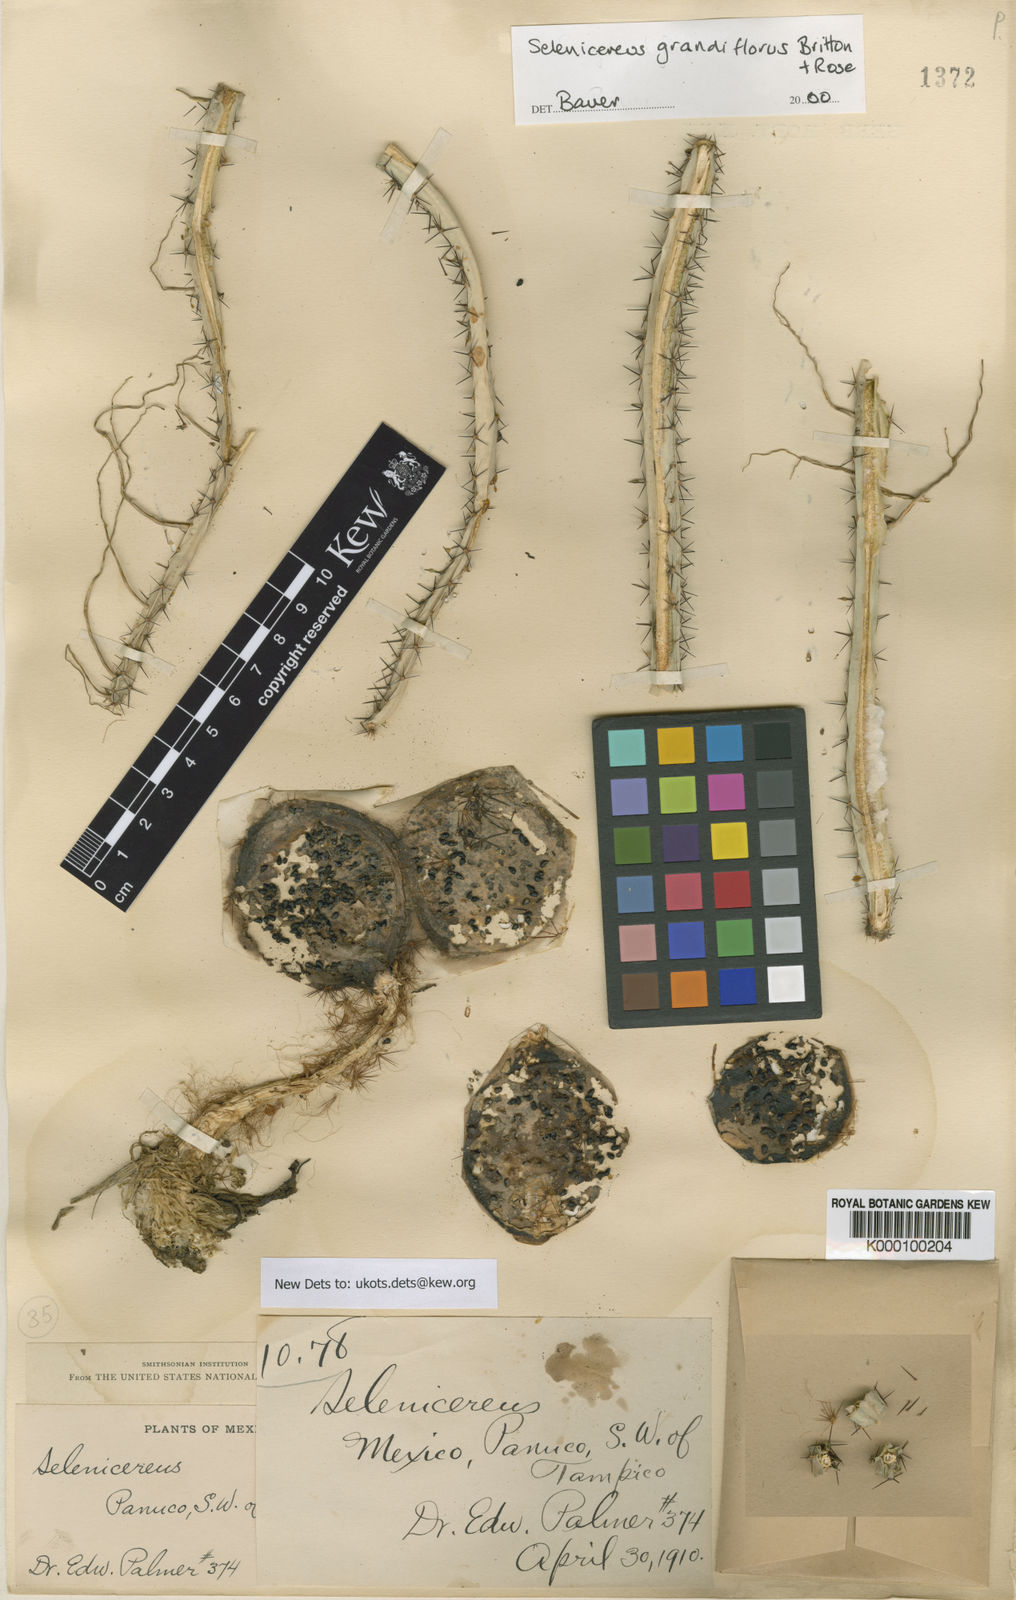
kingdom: Plantae
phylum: Tracheophyta
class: Magnoliopsida
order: Caryophyllales
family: Cactaceae
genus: Selenicereus
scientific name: Selenicereus grandiflorus
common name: Queen of the night
